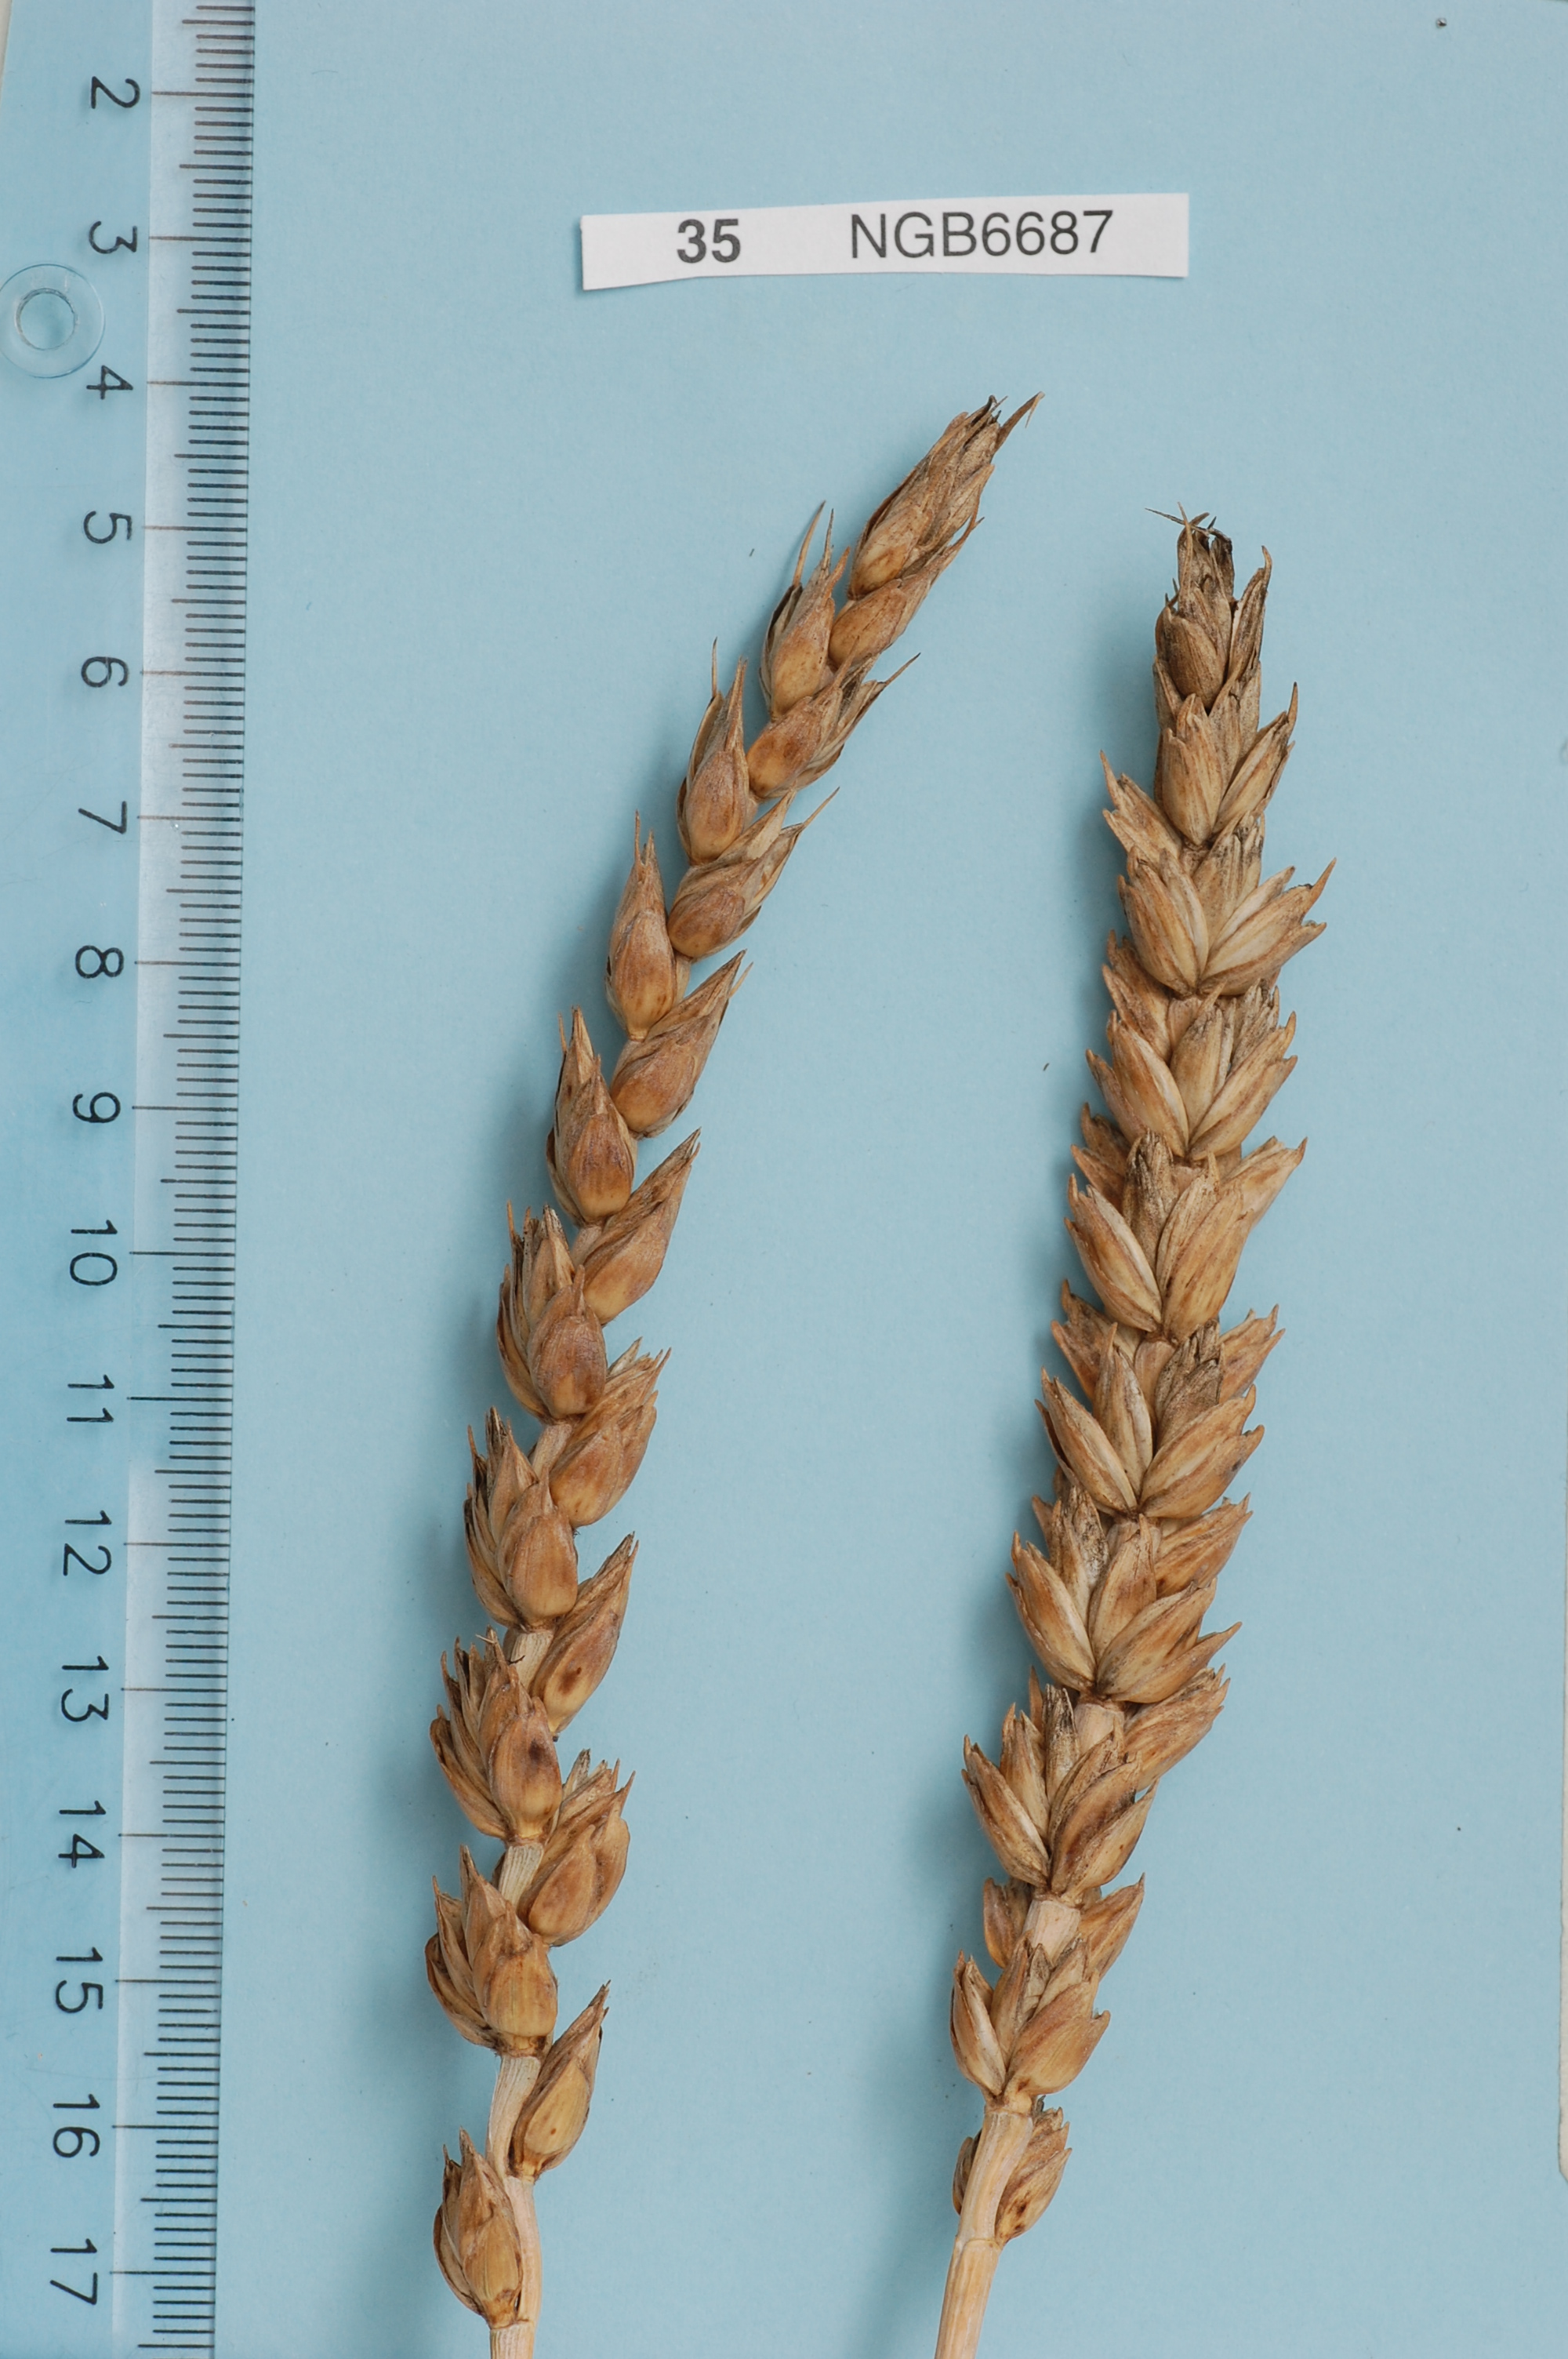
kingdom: Plantae
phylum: Tracheophyta
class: Liliopsida
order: Poales
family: Poaceae
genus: Triticum
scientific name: Triticum aestivum
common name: Common wheat
